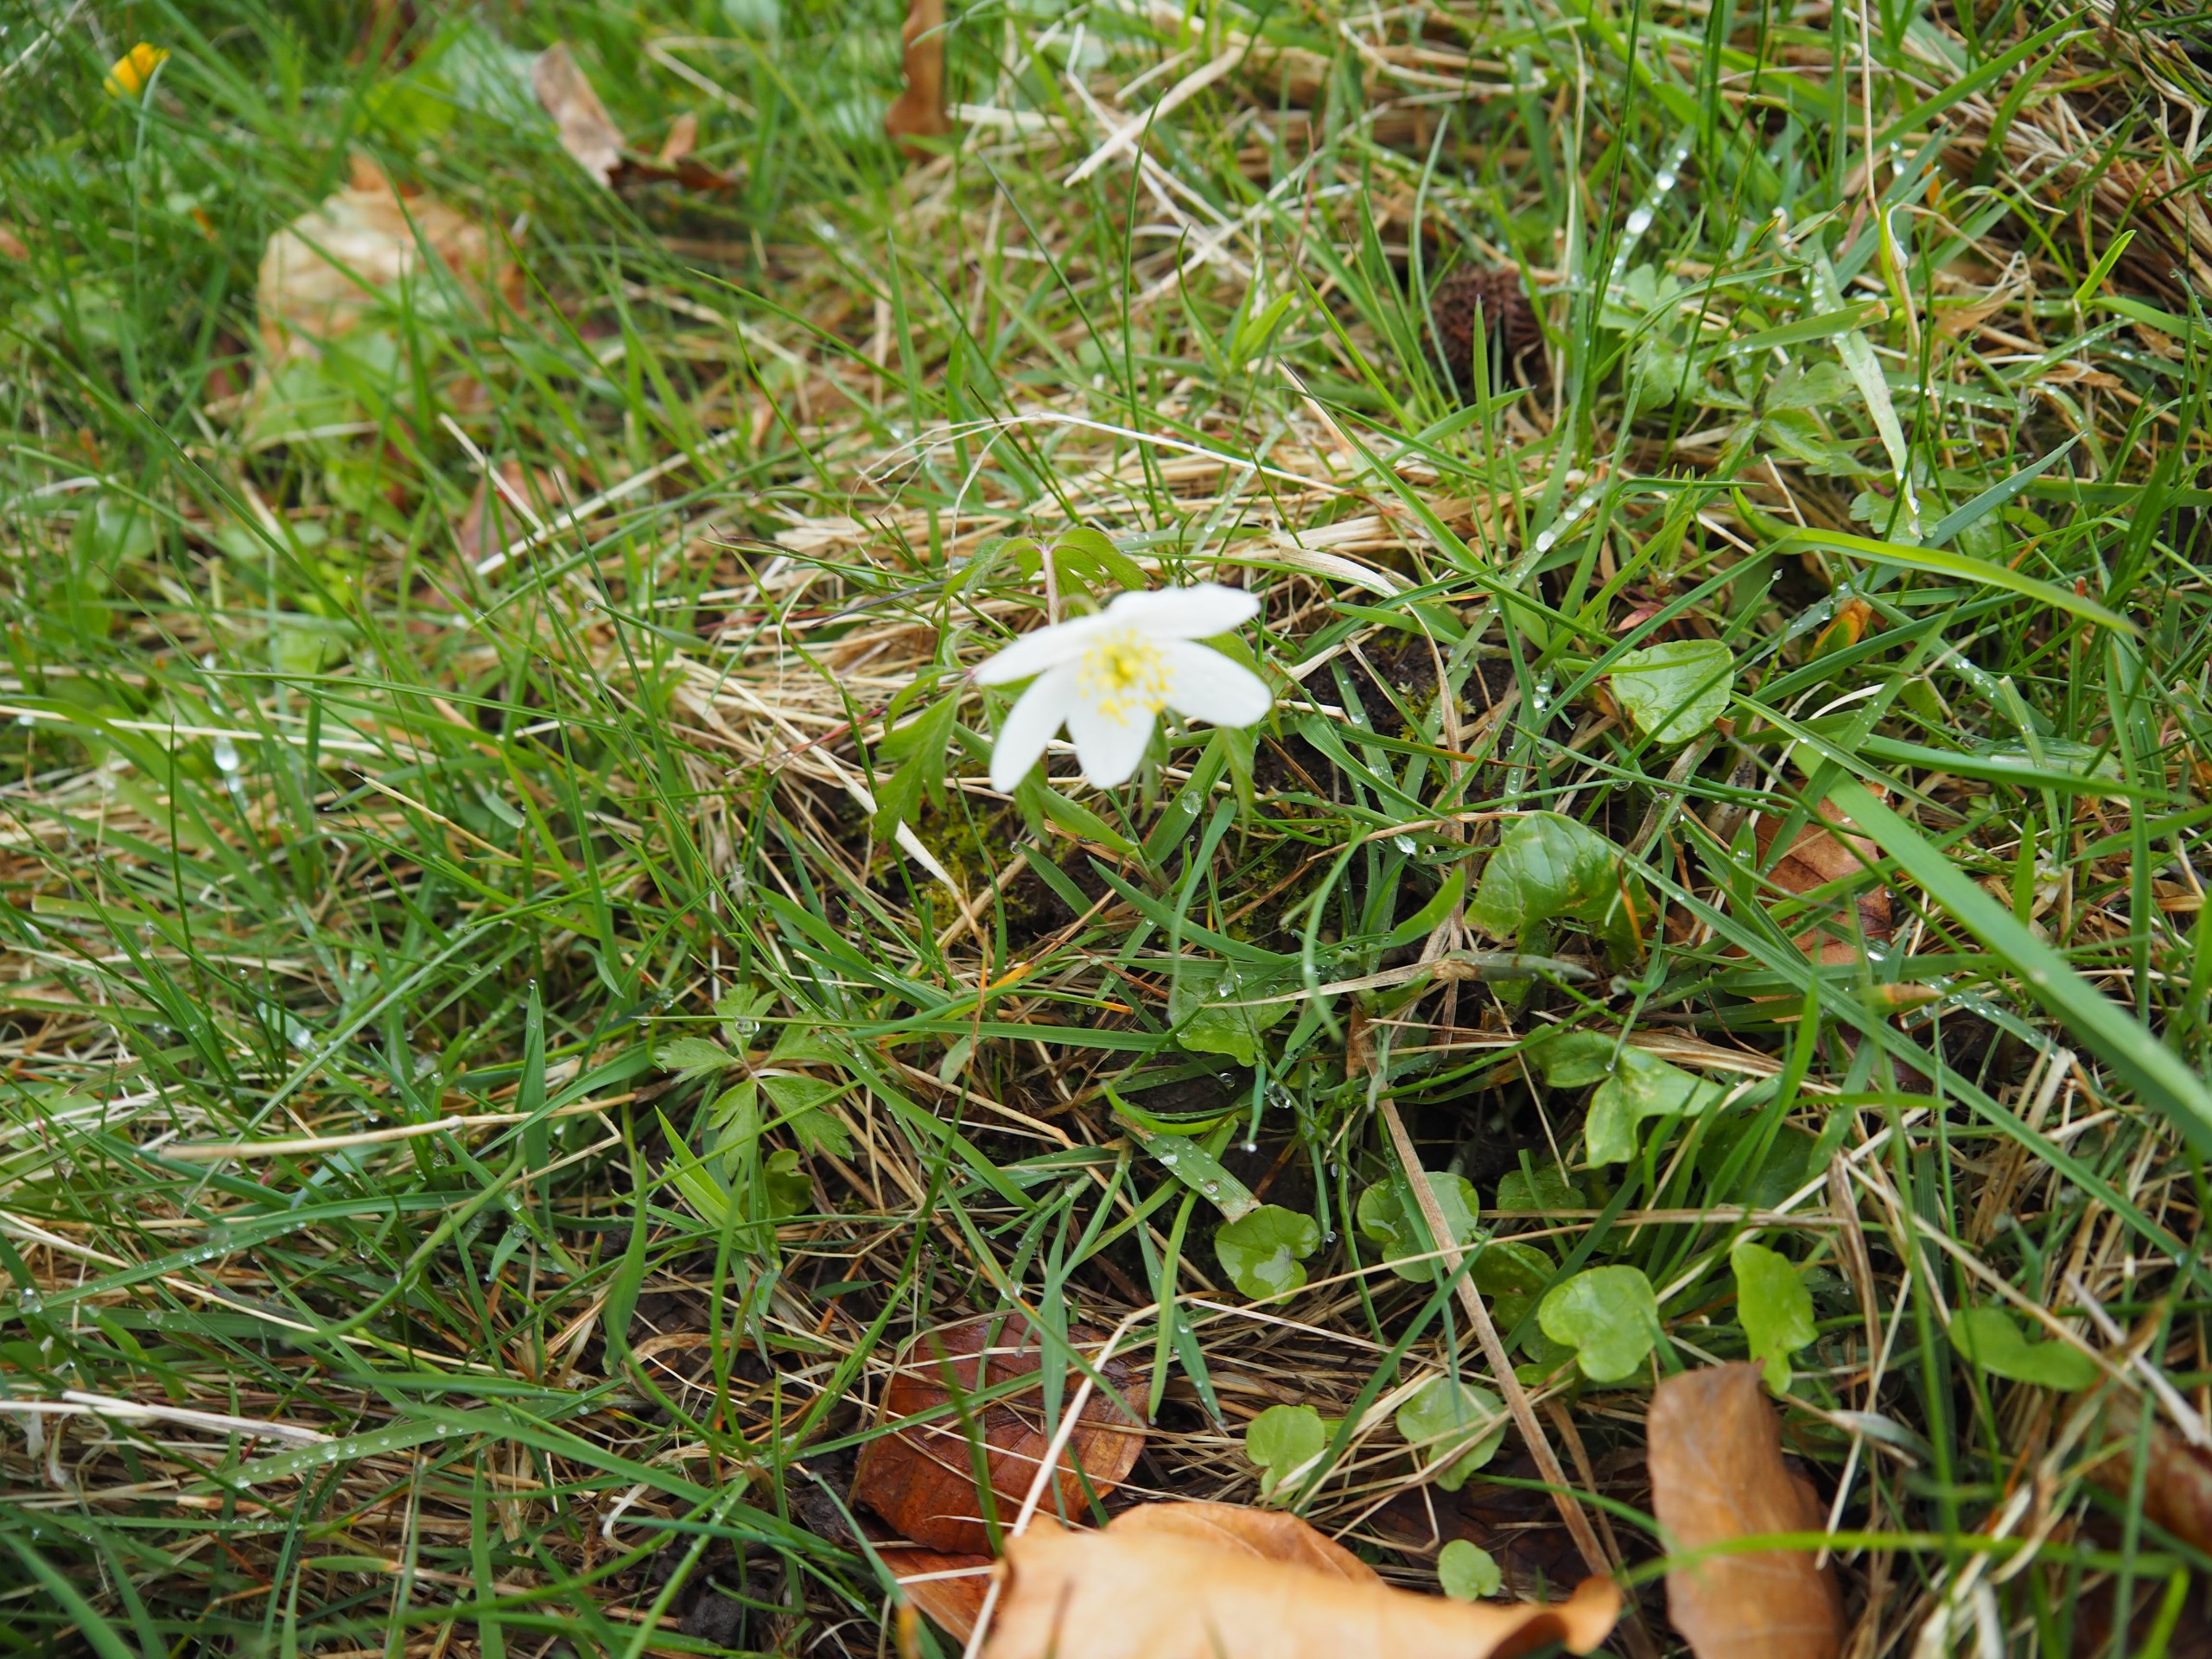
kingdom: Plantae
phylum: Tracheophyta
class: Magnoliopsida
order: Ranunculales
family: Ranunculaceae
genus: Anemone
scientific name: Anemone nemorosa
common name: Hvid anemone
